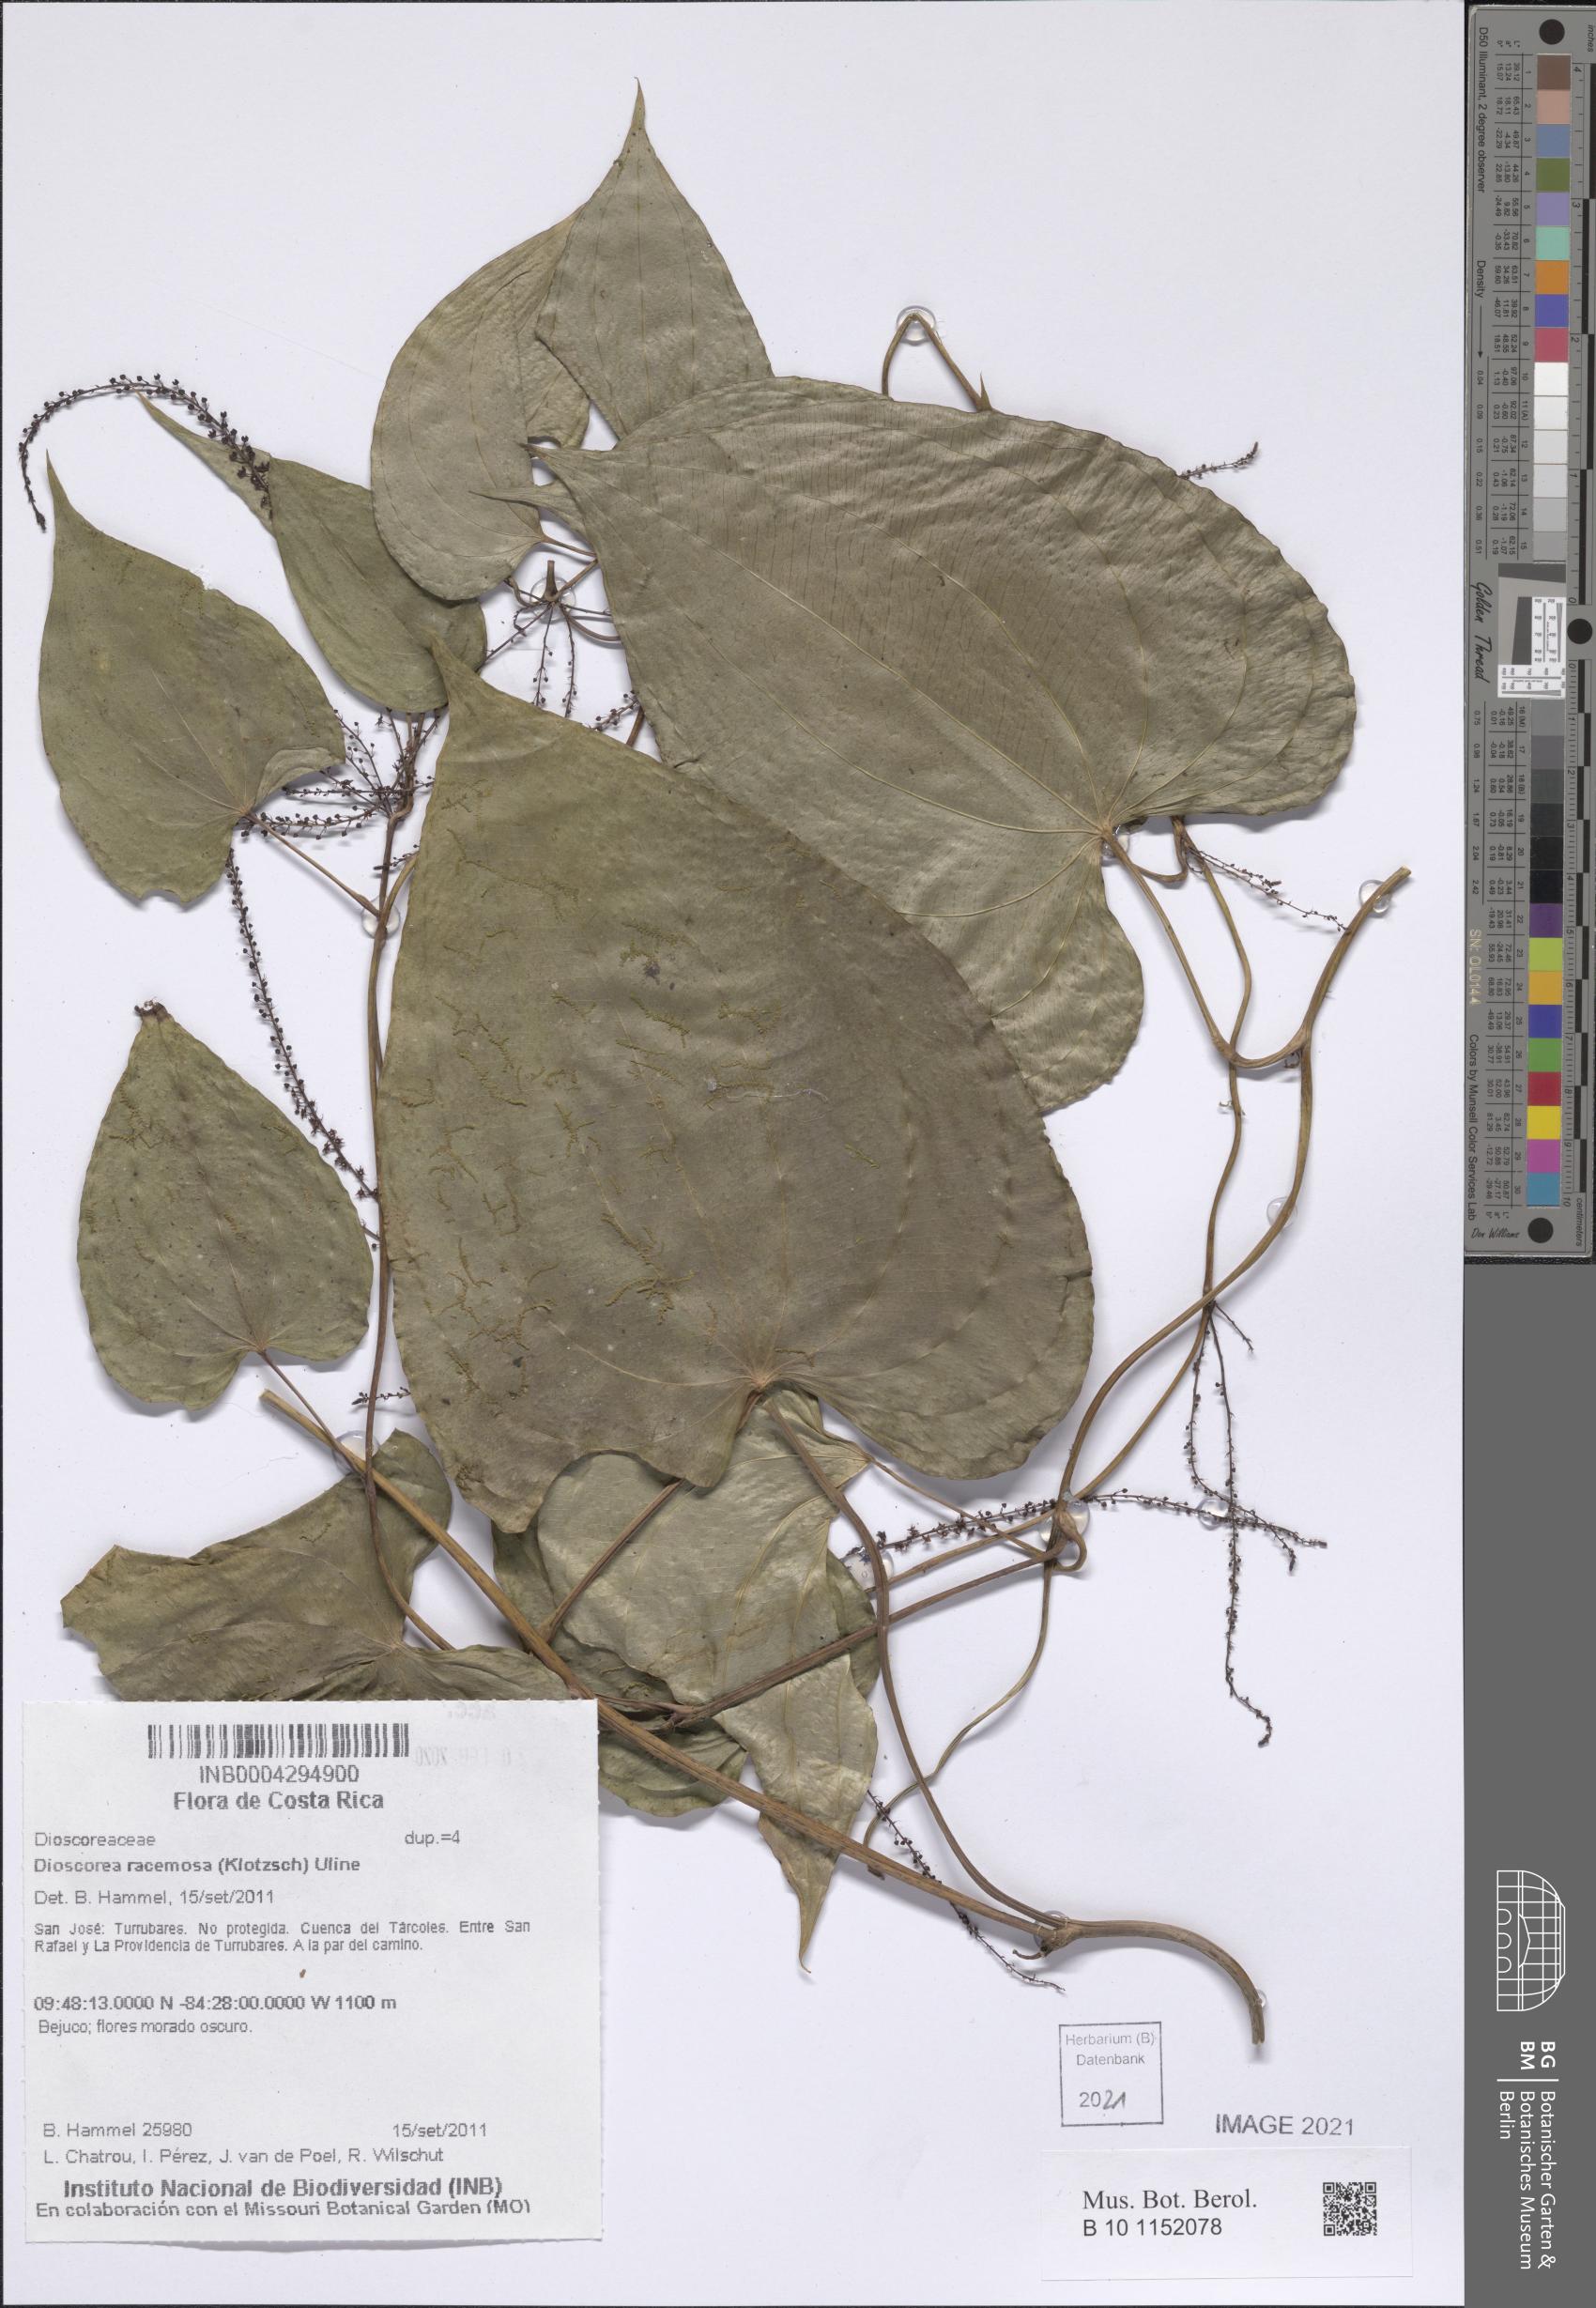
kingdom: Plantae
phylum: Tracheophyta
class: Liliopsida
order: Dioscoreales
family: Dioscoreaceae
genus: Dioscorea
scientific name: Dioscorea dodecaneura
